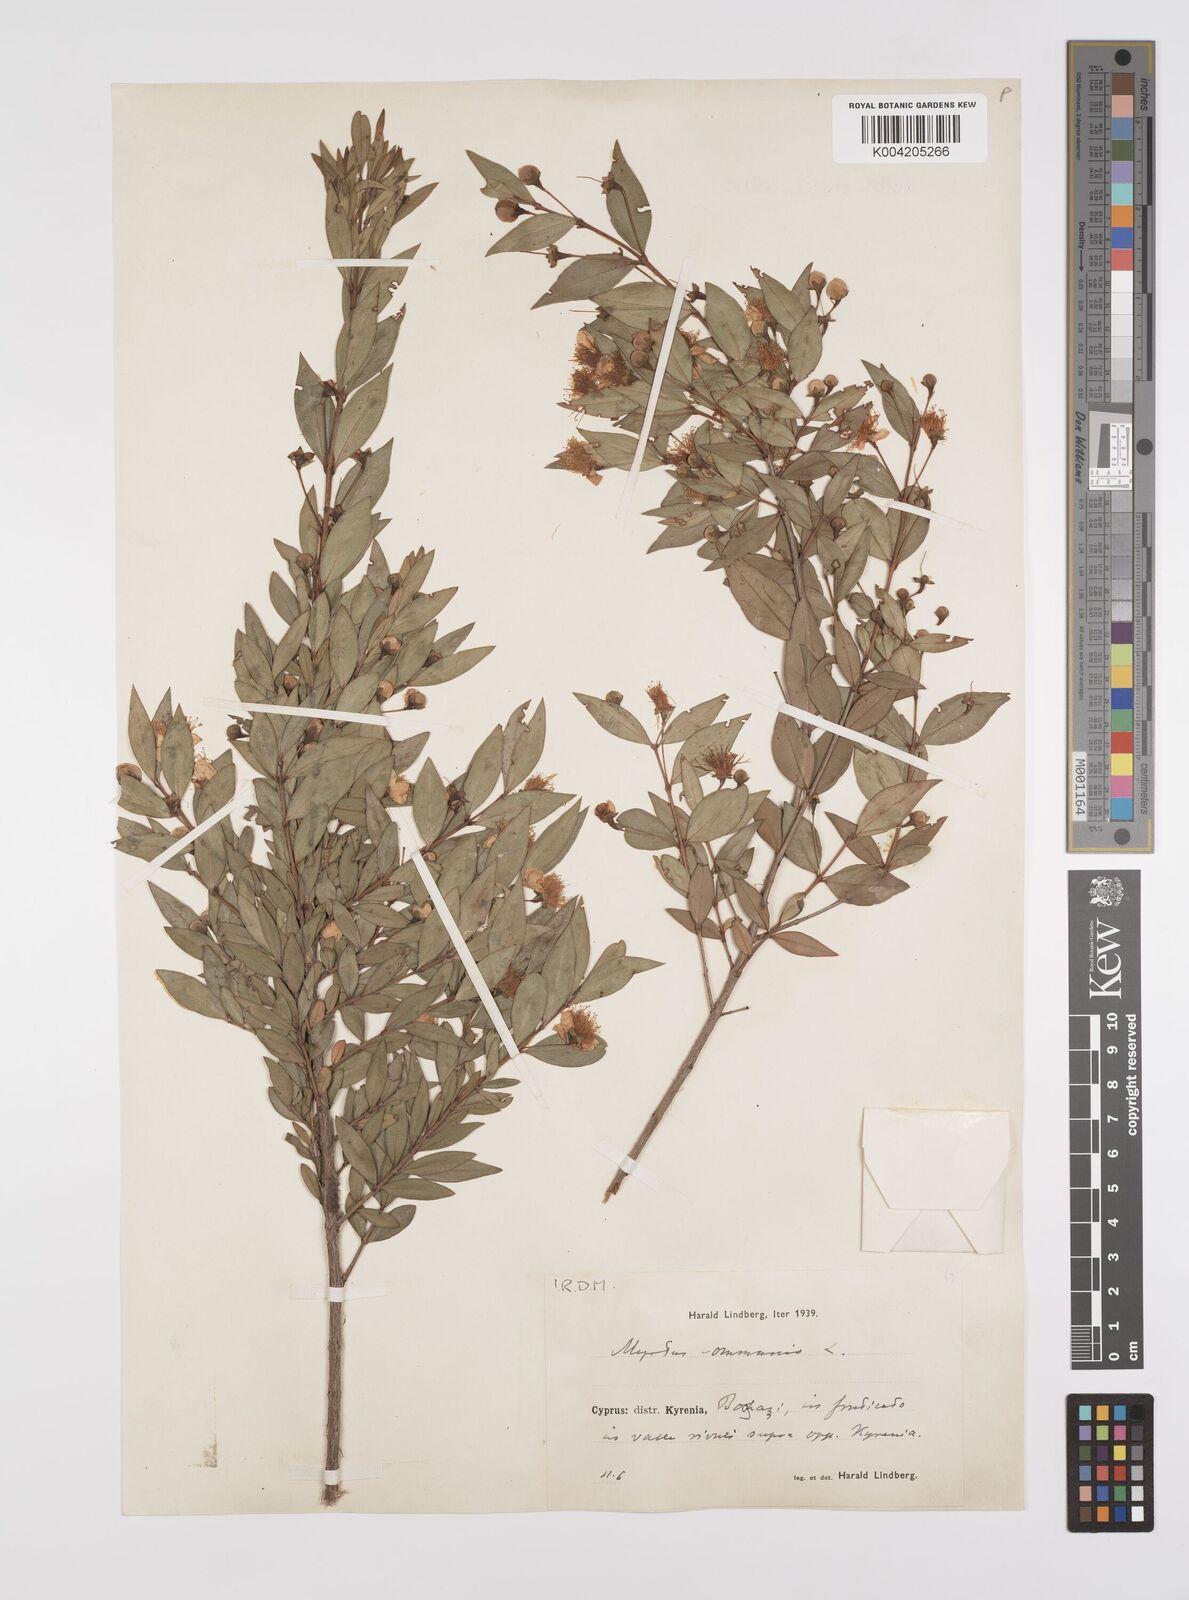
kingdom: Plantae
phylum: Tracheophyta
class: Magnoliopsida
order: Myrtales
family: Myrtaceae
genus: Myrtus
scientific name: Myrtus communis
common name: Myrtle
